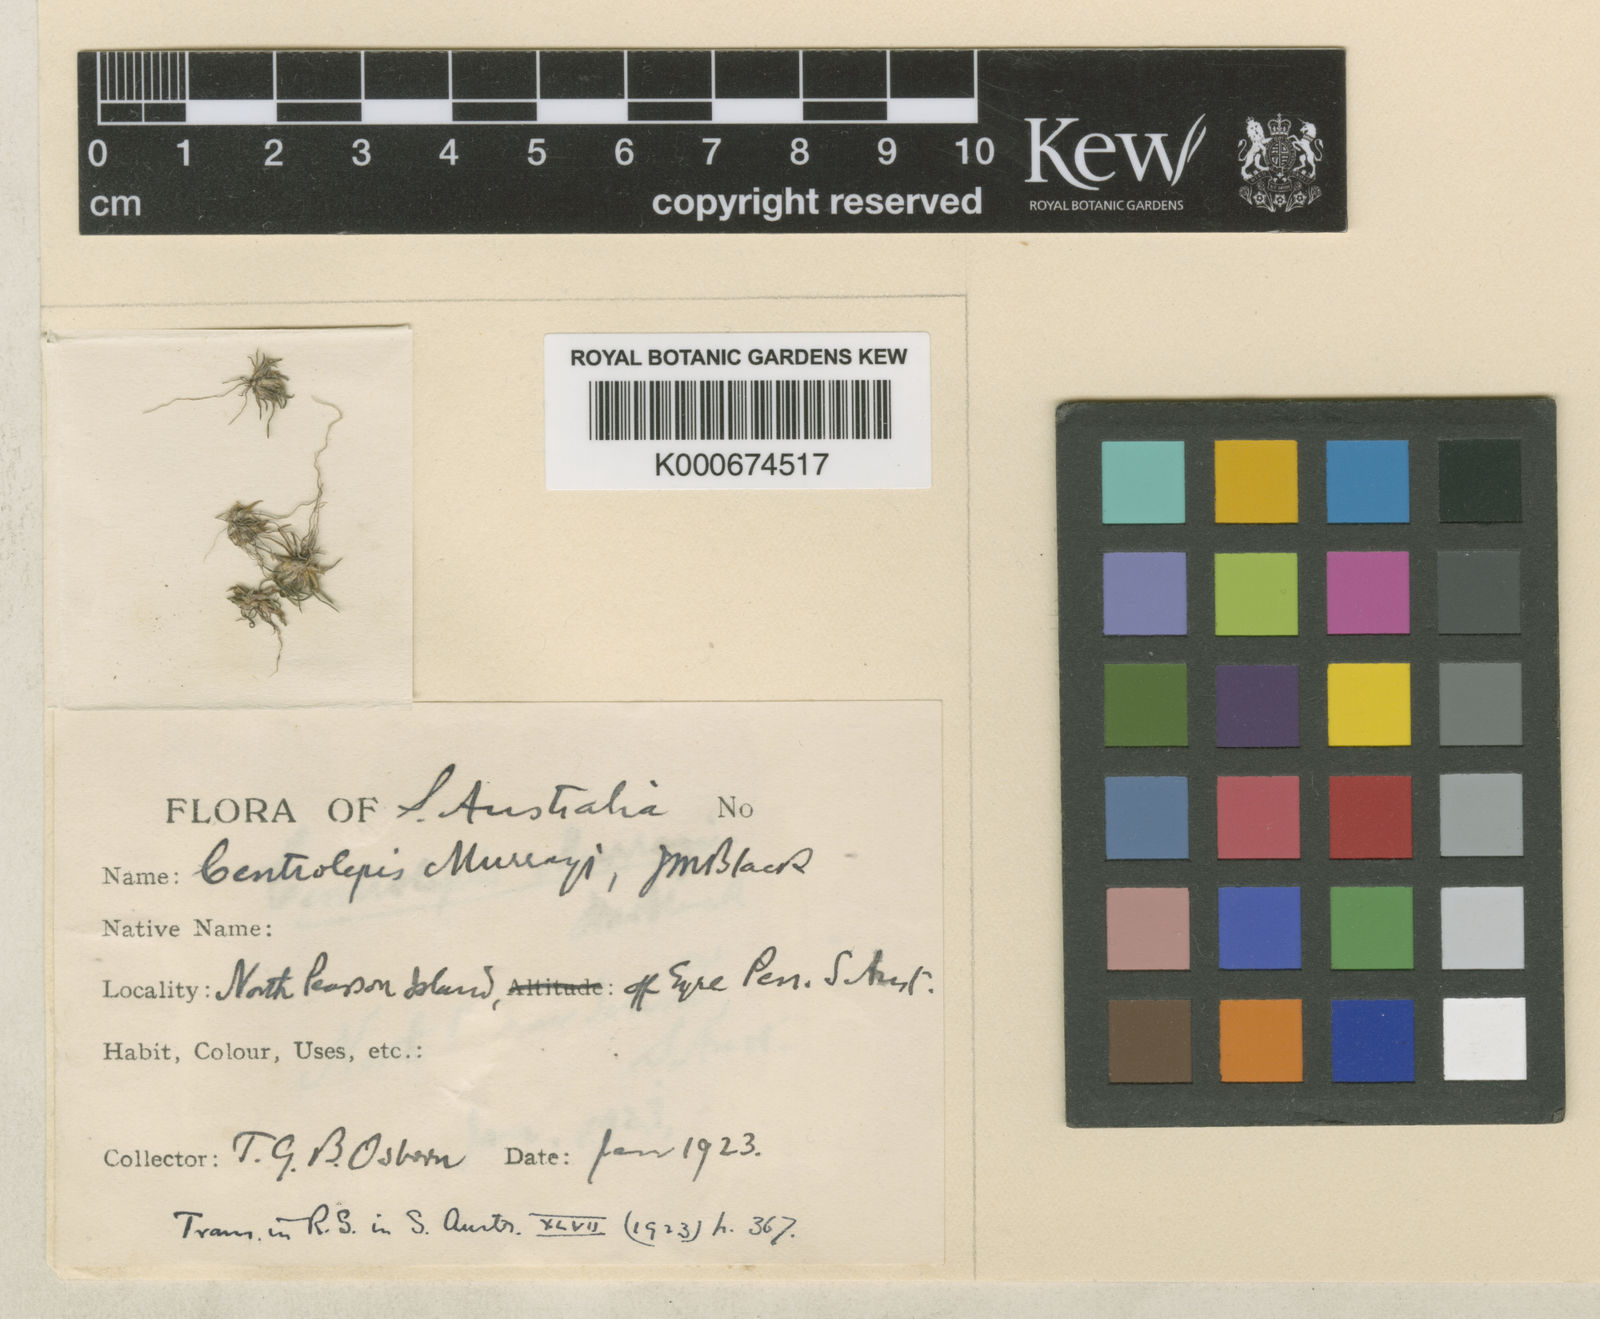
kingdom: Plantae
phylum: Tracheophyta
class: Liliopsida
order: Poales
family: Restionaceae
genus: Centrolepis
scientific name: Centrolepis cephaloformis
